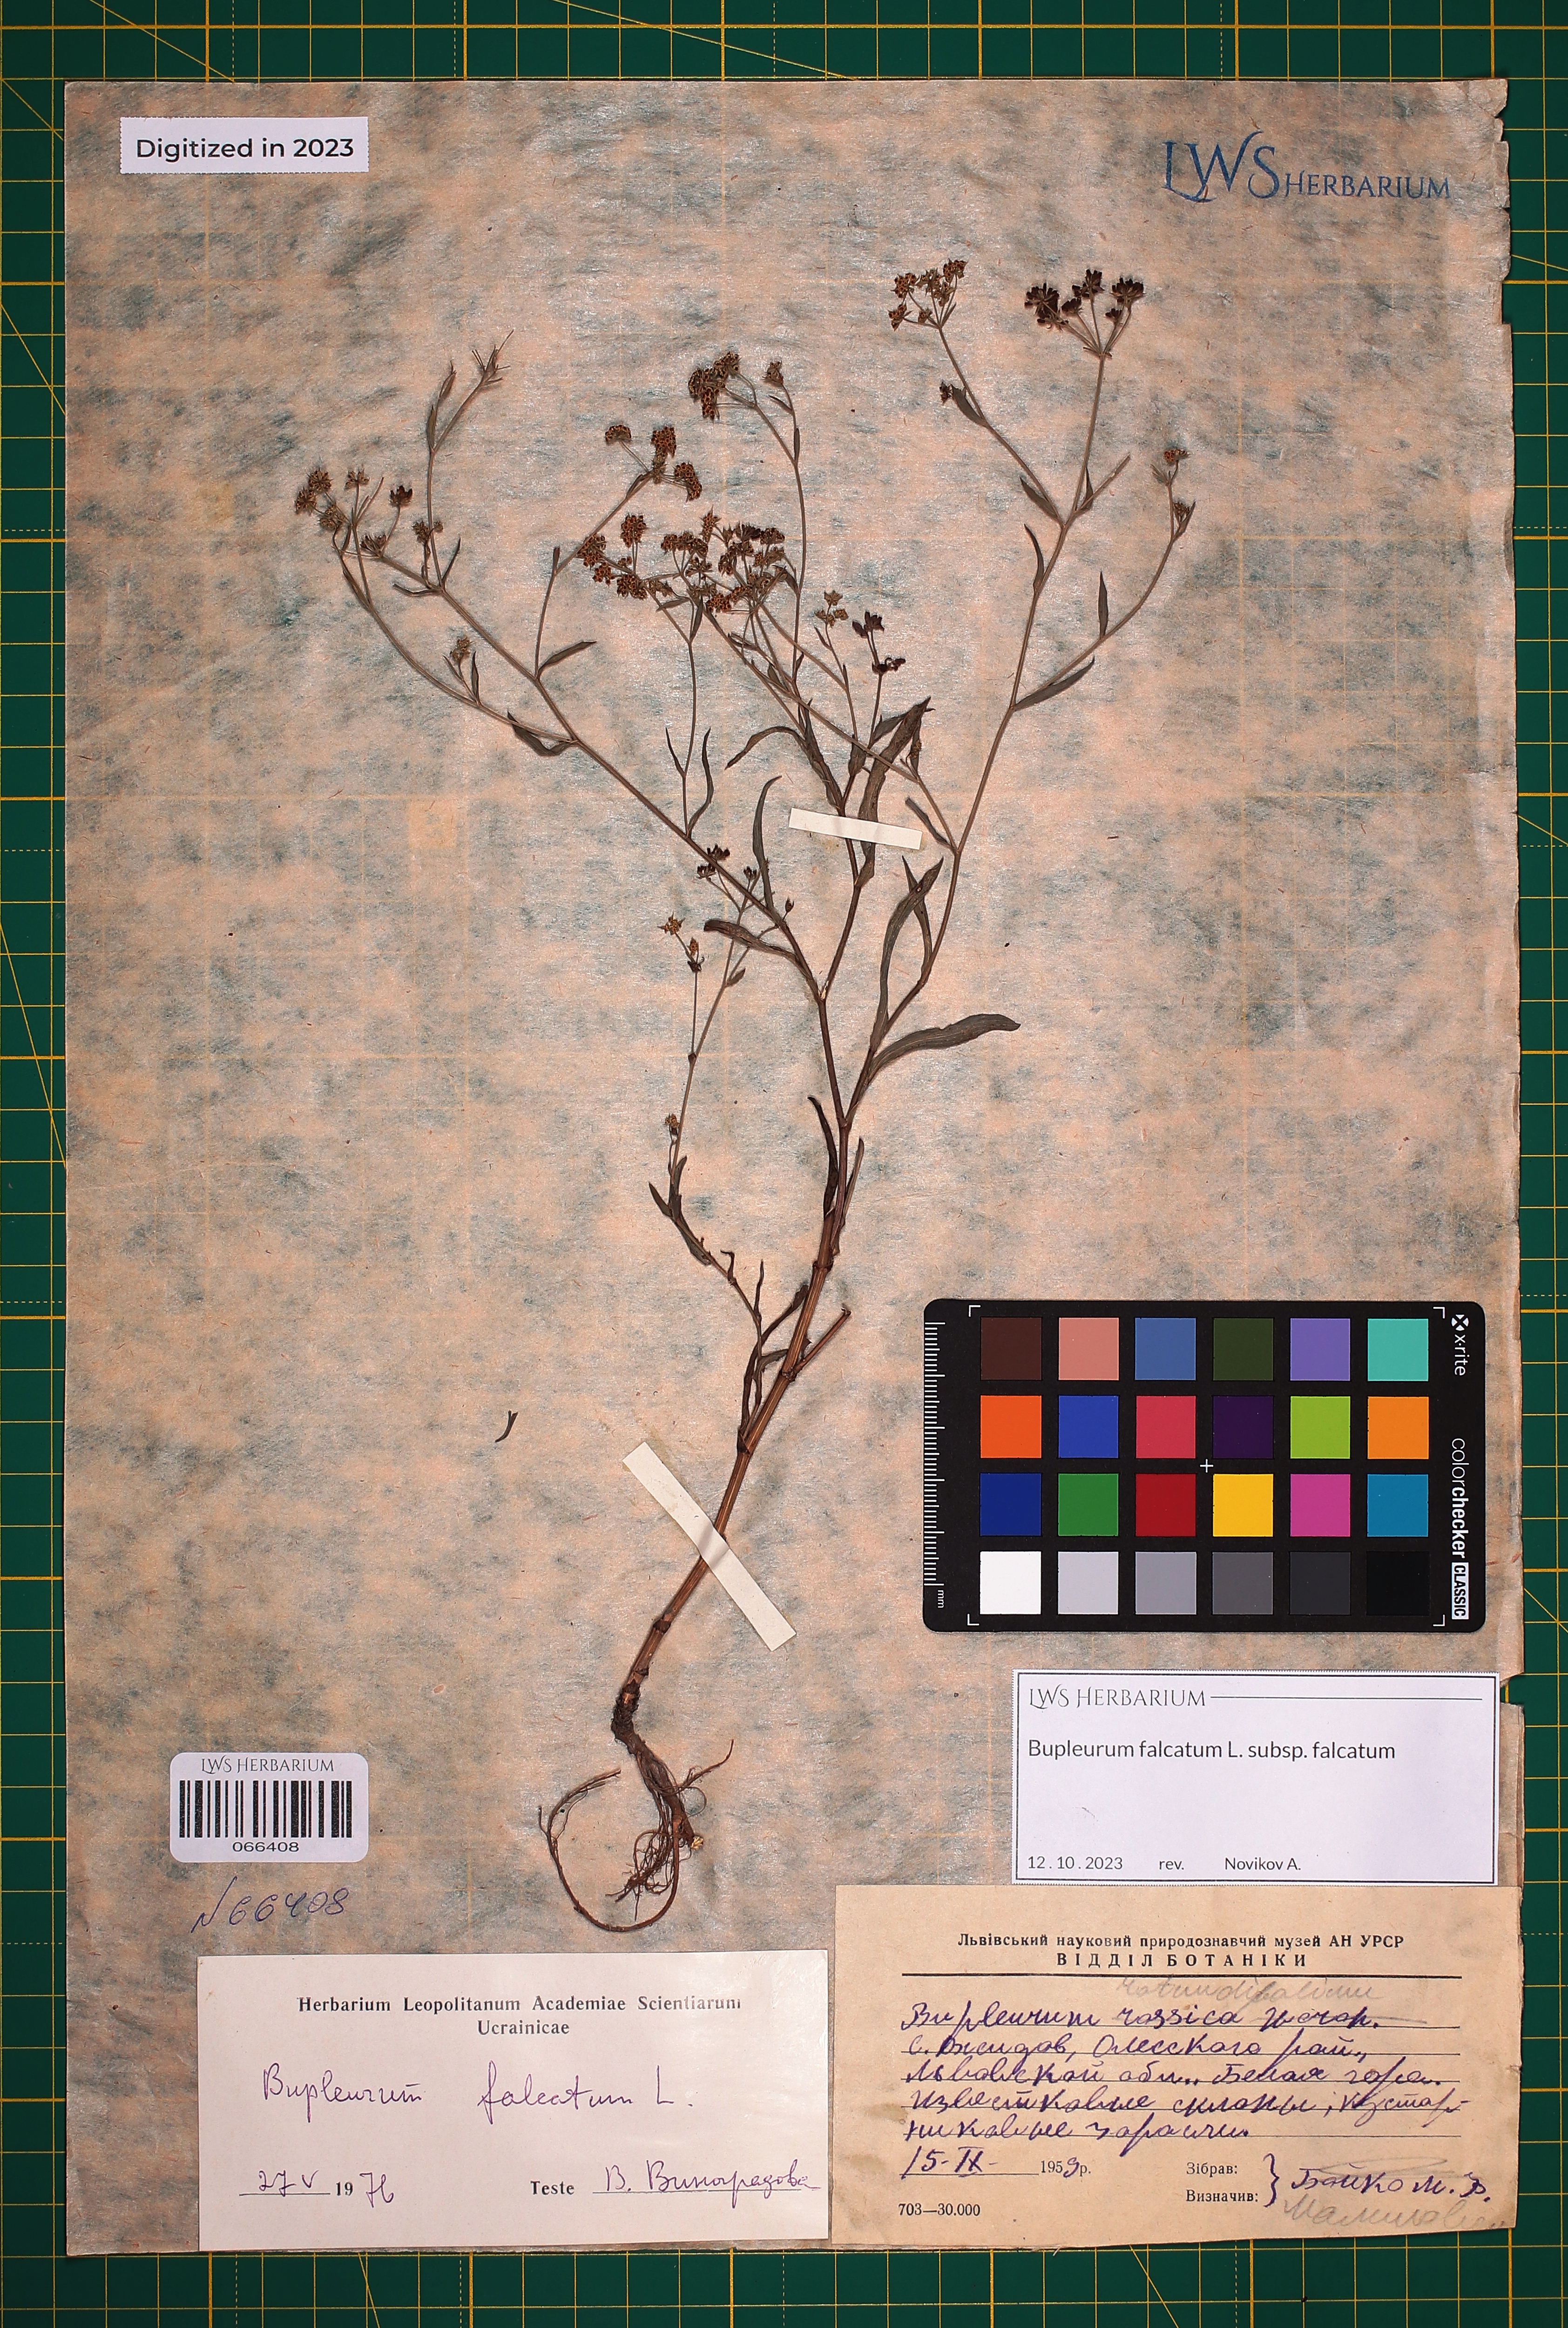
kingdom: Plantae
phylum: Tracheophyta
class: Magnoliopsida
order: Apiales
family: Apiaceae
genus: Bupleurum
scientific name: Bupleurum falcatum
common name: Sickle-leaved hare's-ear
